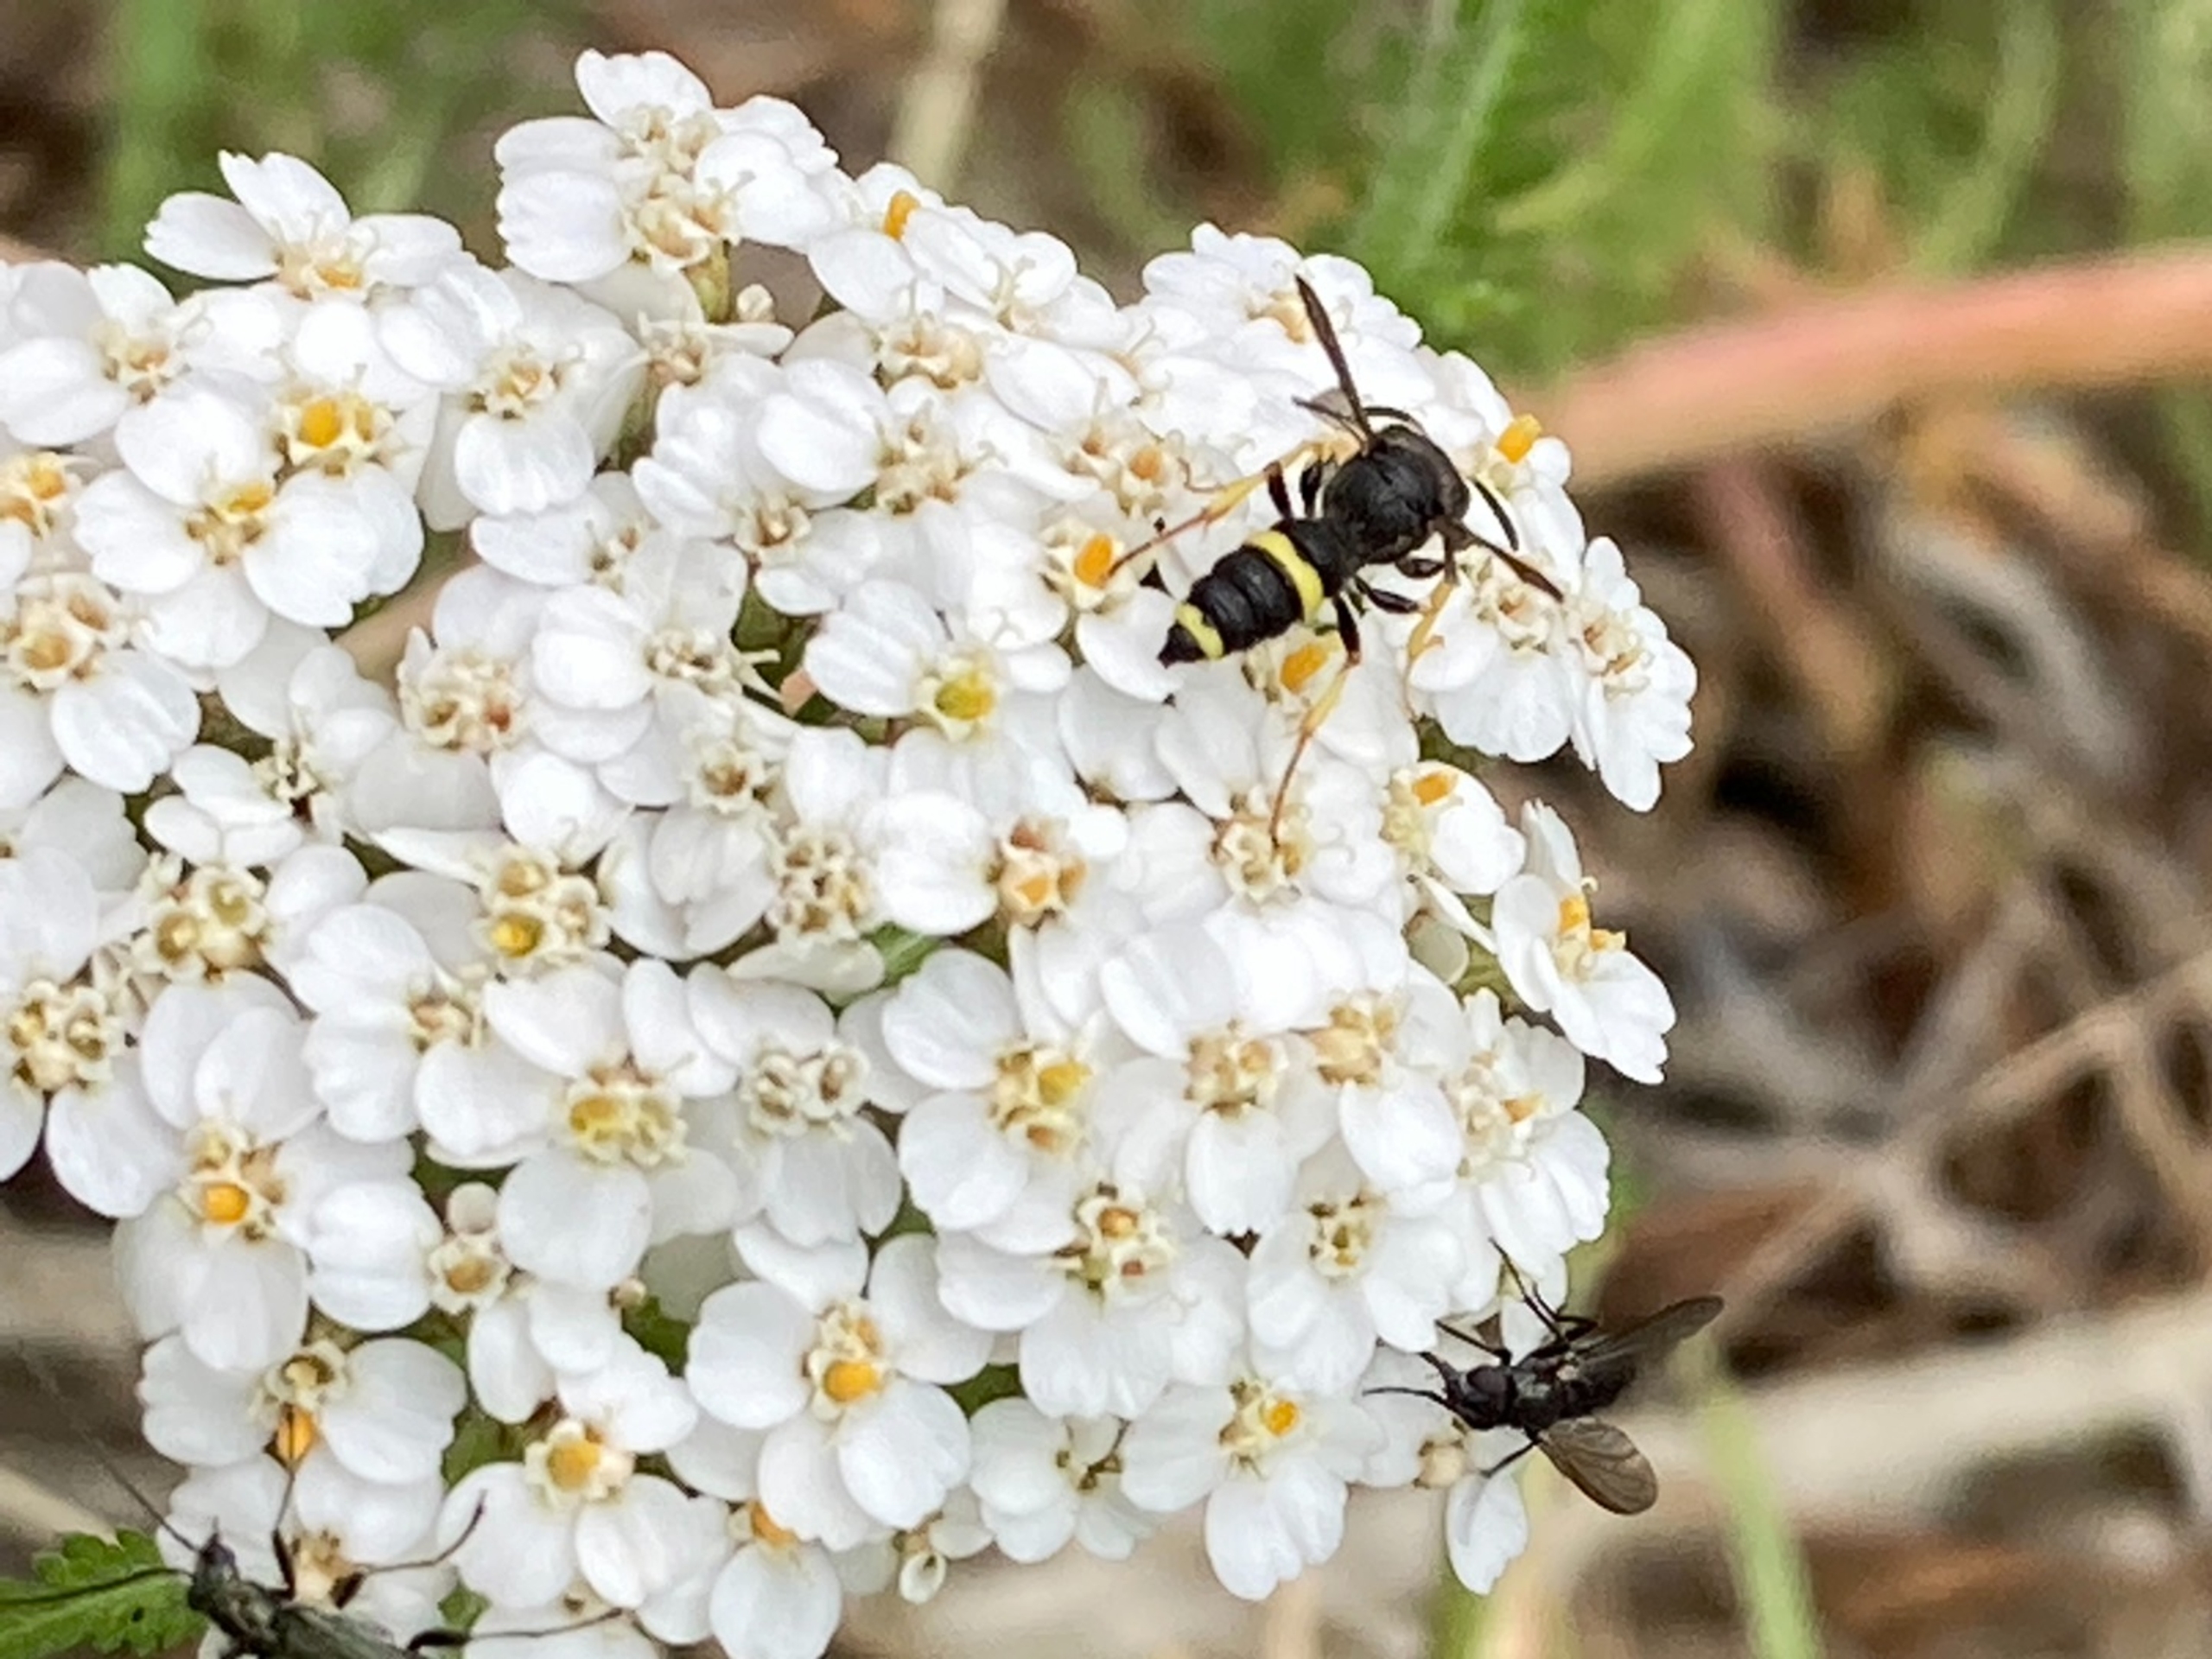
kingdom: Animalia
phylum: Arthropoda
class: Insecta
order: Hymenoptera
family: Crabronidae
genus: Cerceris
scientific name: Cerceris rybyensis
